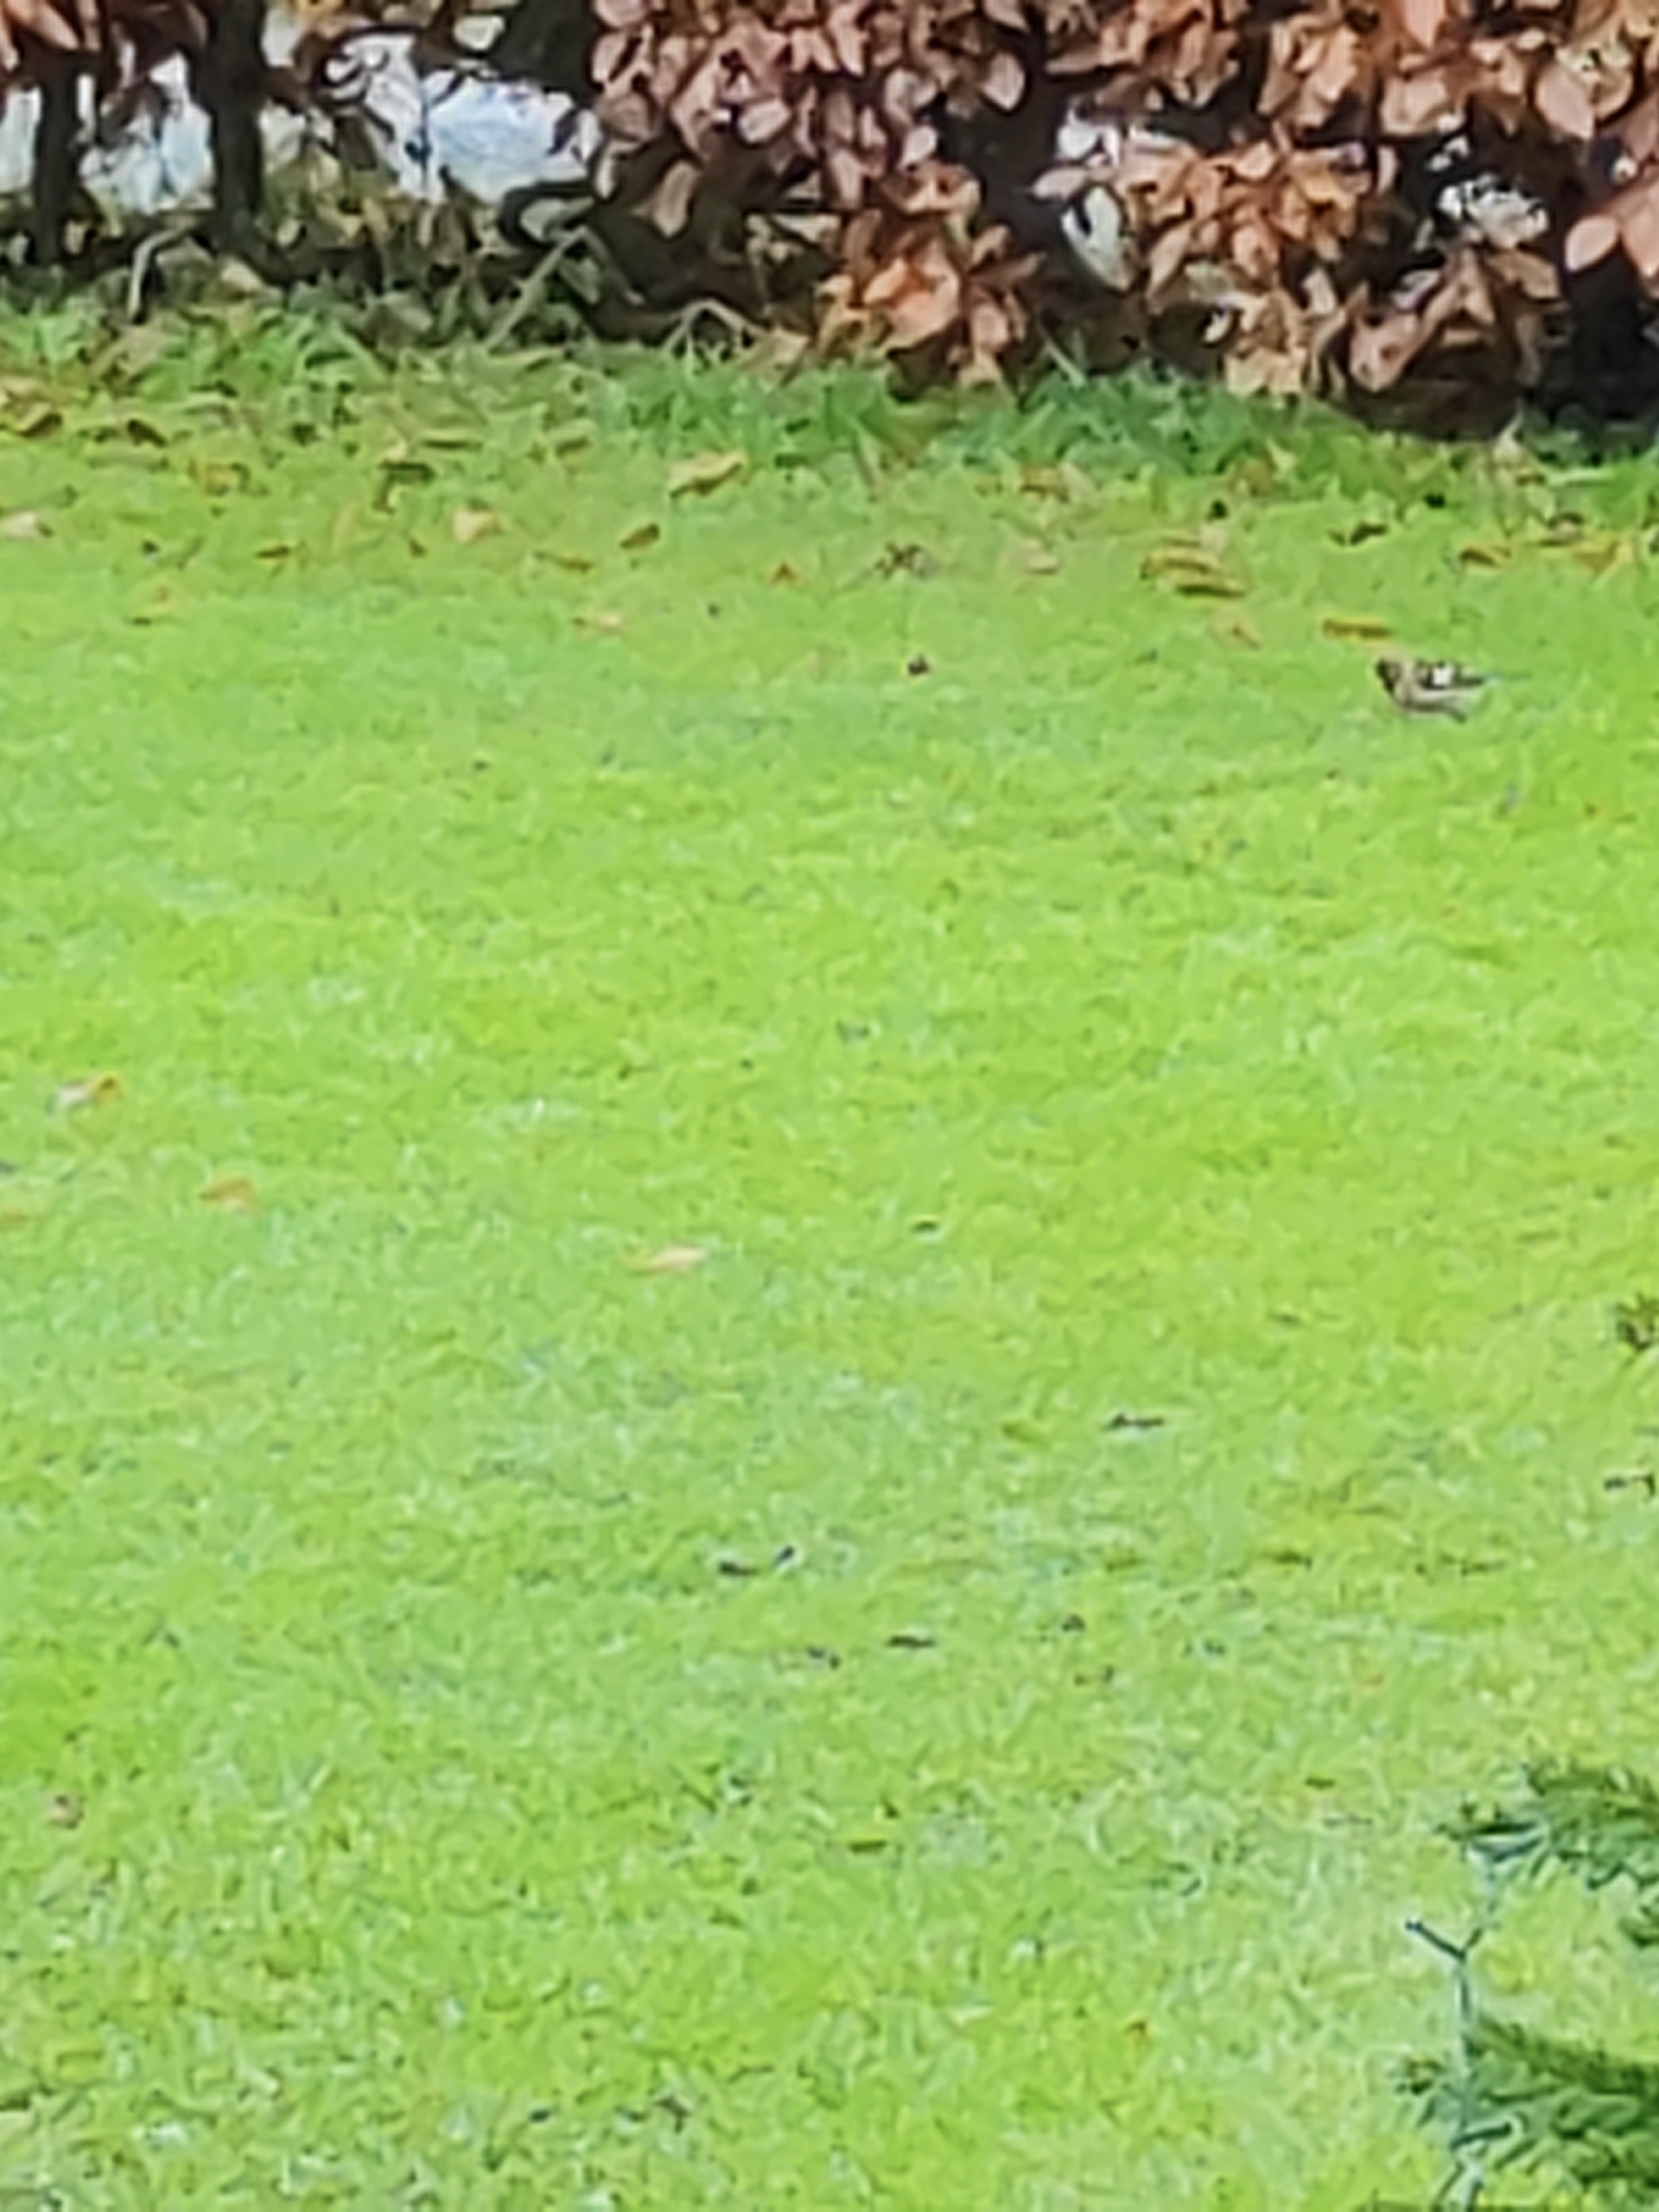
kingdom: Animalia
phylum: Chordata
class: Aves
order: Passeriformes
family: Fringillidae
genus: Fringilla
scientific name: Fringilla coelebs
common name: Bogfinke
